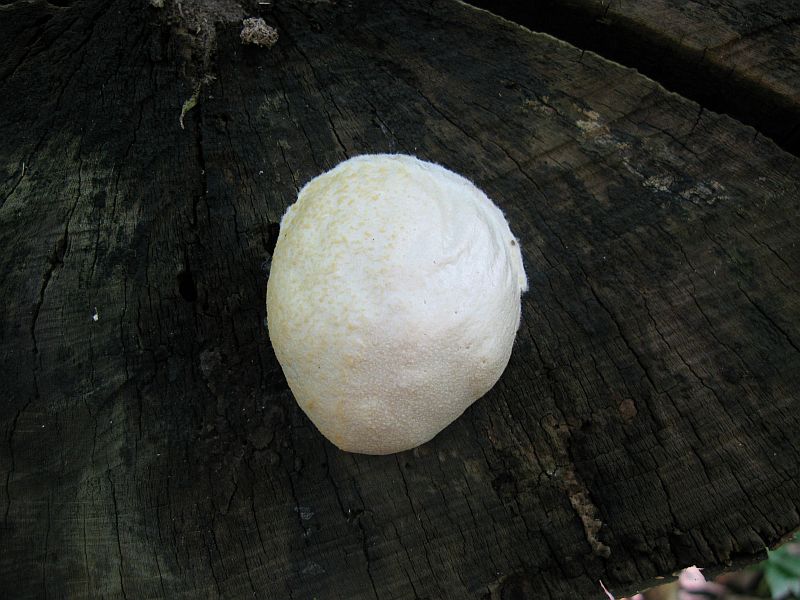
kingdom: Protozoa
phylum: Mycetozoa
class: Myxomycetes
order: Cribrariales
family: Tubiferaceae
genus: Reticularia
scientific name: Reticularia lycoperdon
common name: skinnende støvpude
